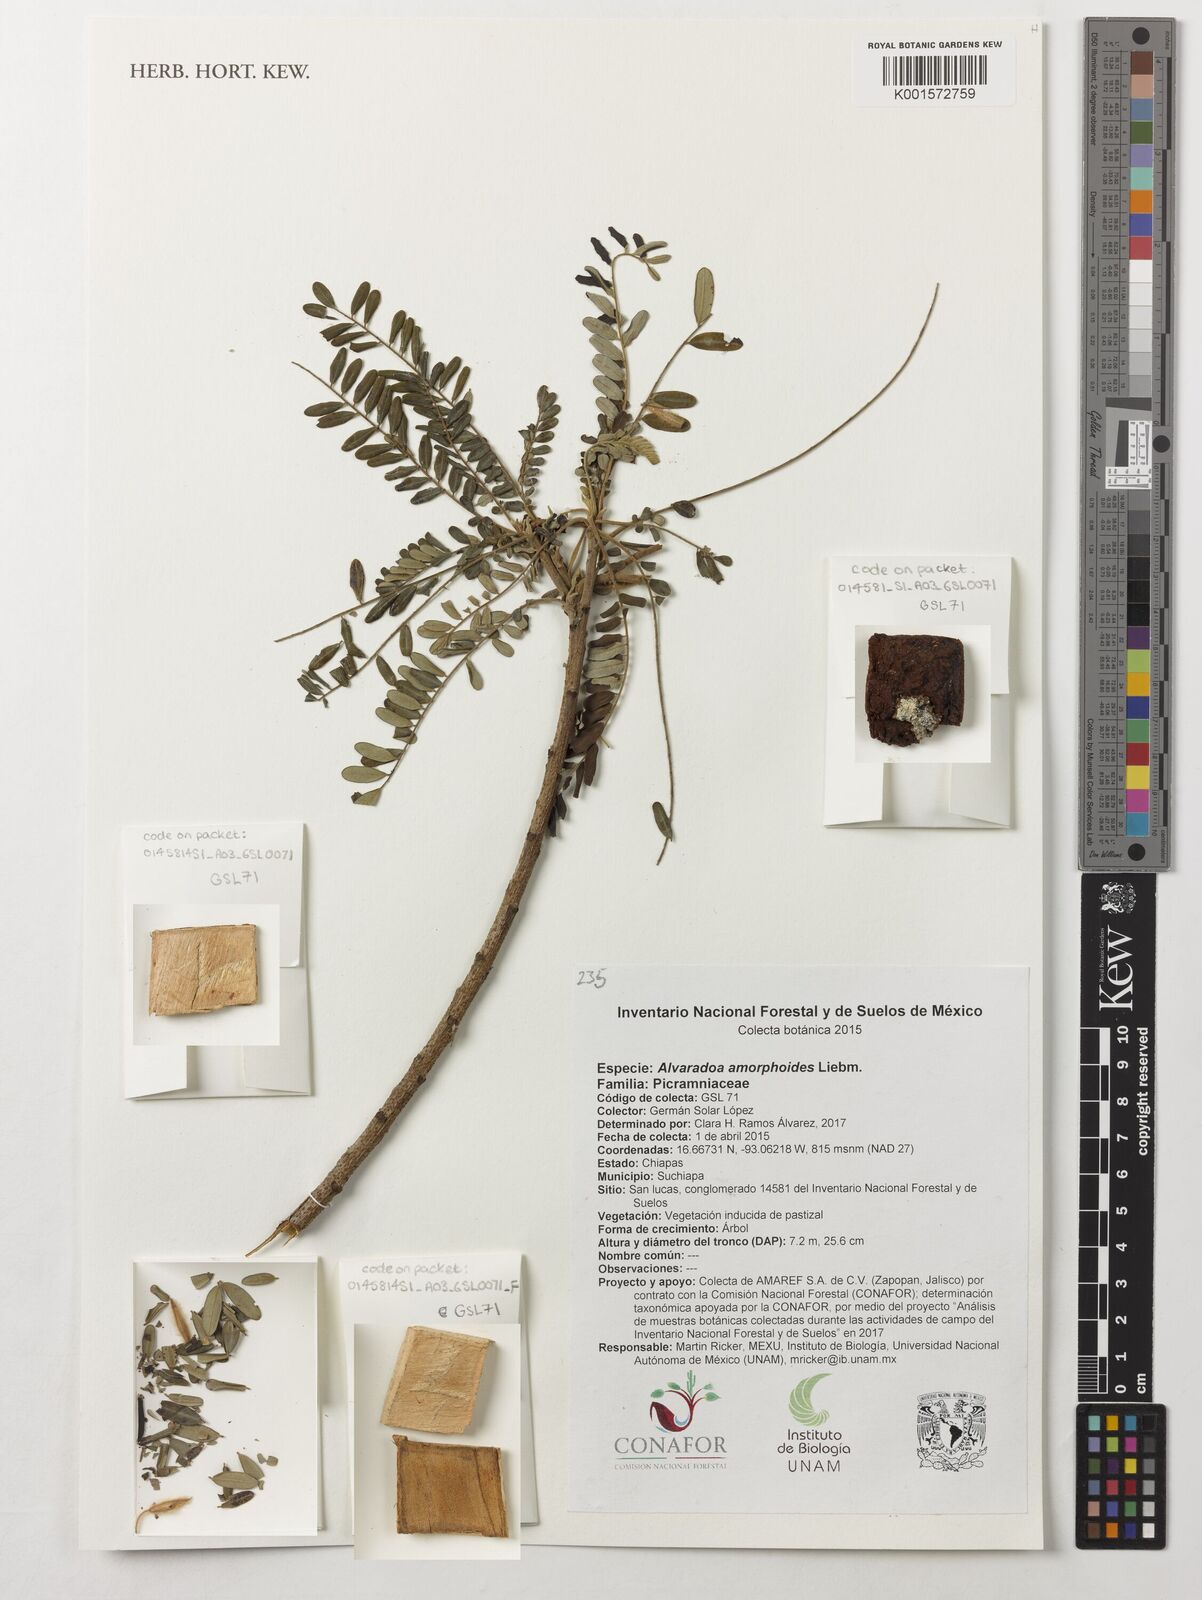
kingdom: Plantae
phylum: Tracheophyta
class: Magnoliopsida
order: Picramniales
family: Picramniaceae
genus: Alvaradoa
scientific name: Alvaradoa amorphoides
